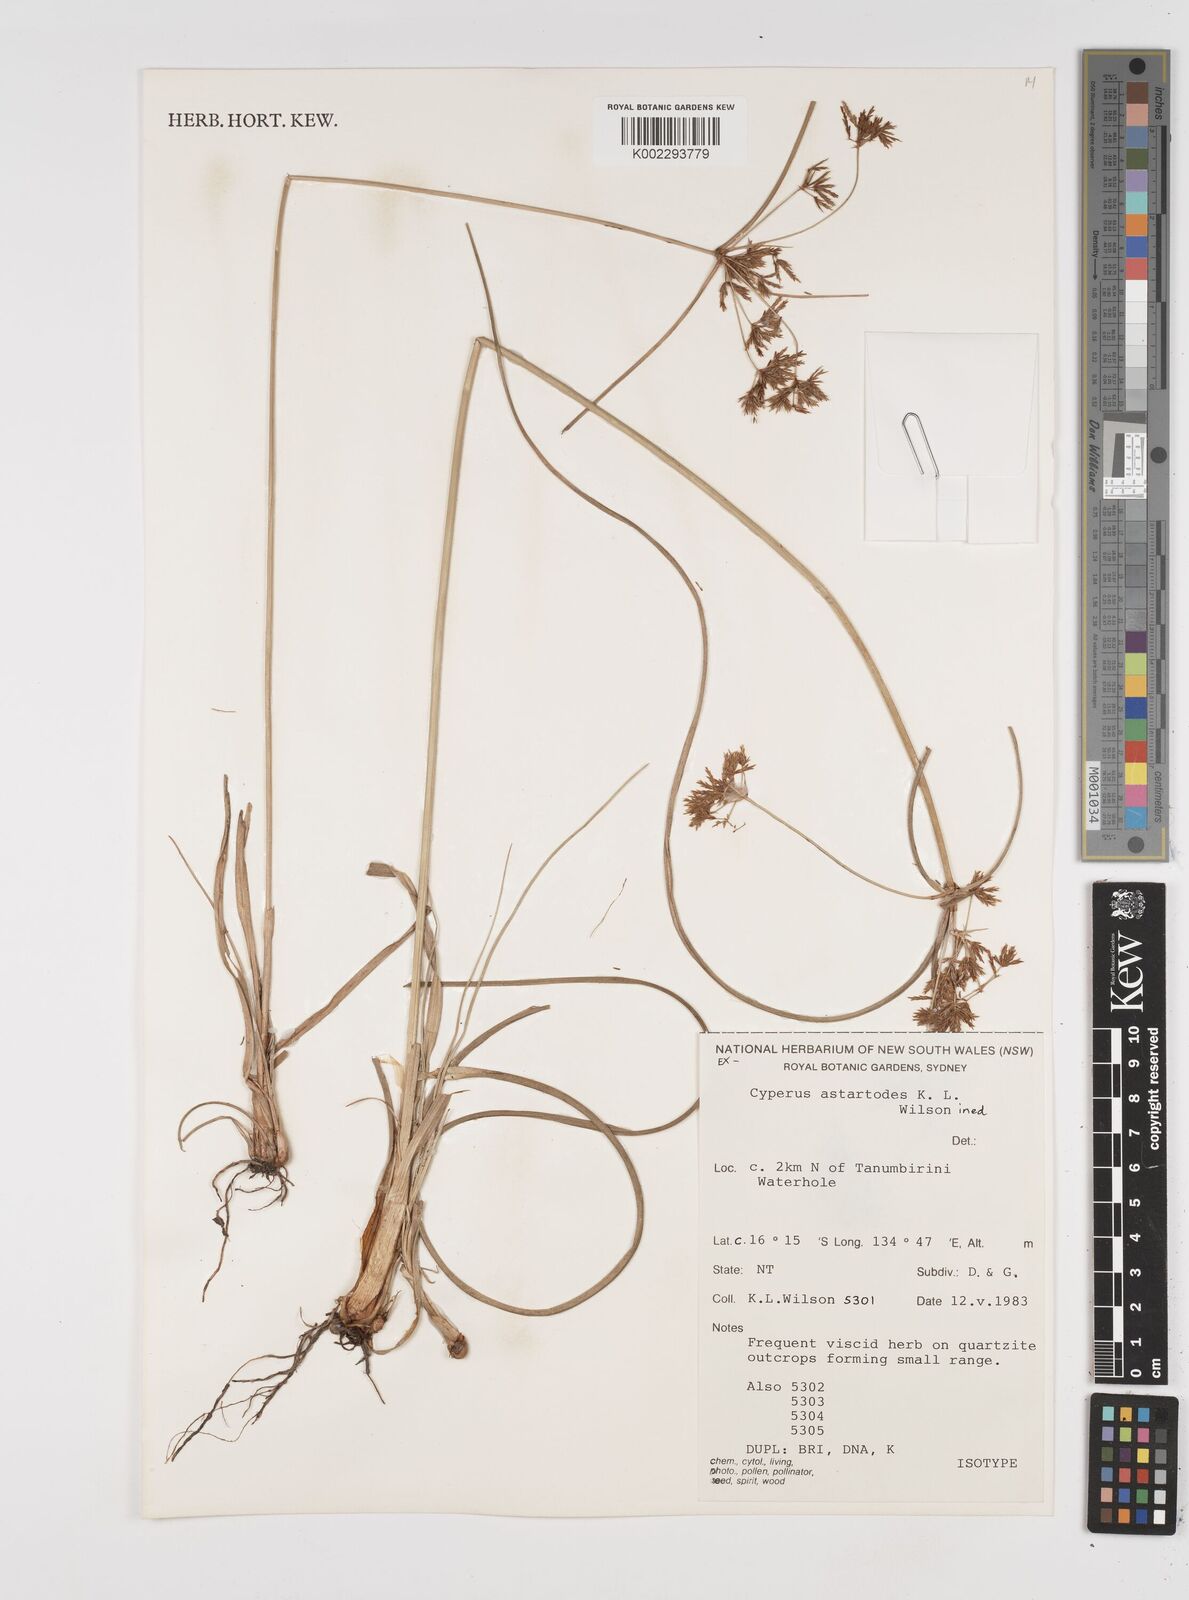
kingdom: Plantae
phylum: Tracheophyta
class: Liliopsida
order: Poales
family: Cyperaceae
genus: Cyperus
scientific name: Cyperus astartodes
